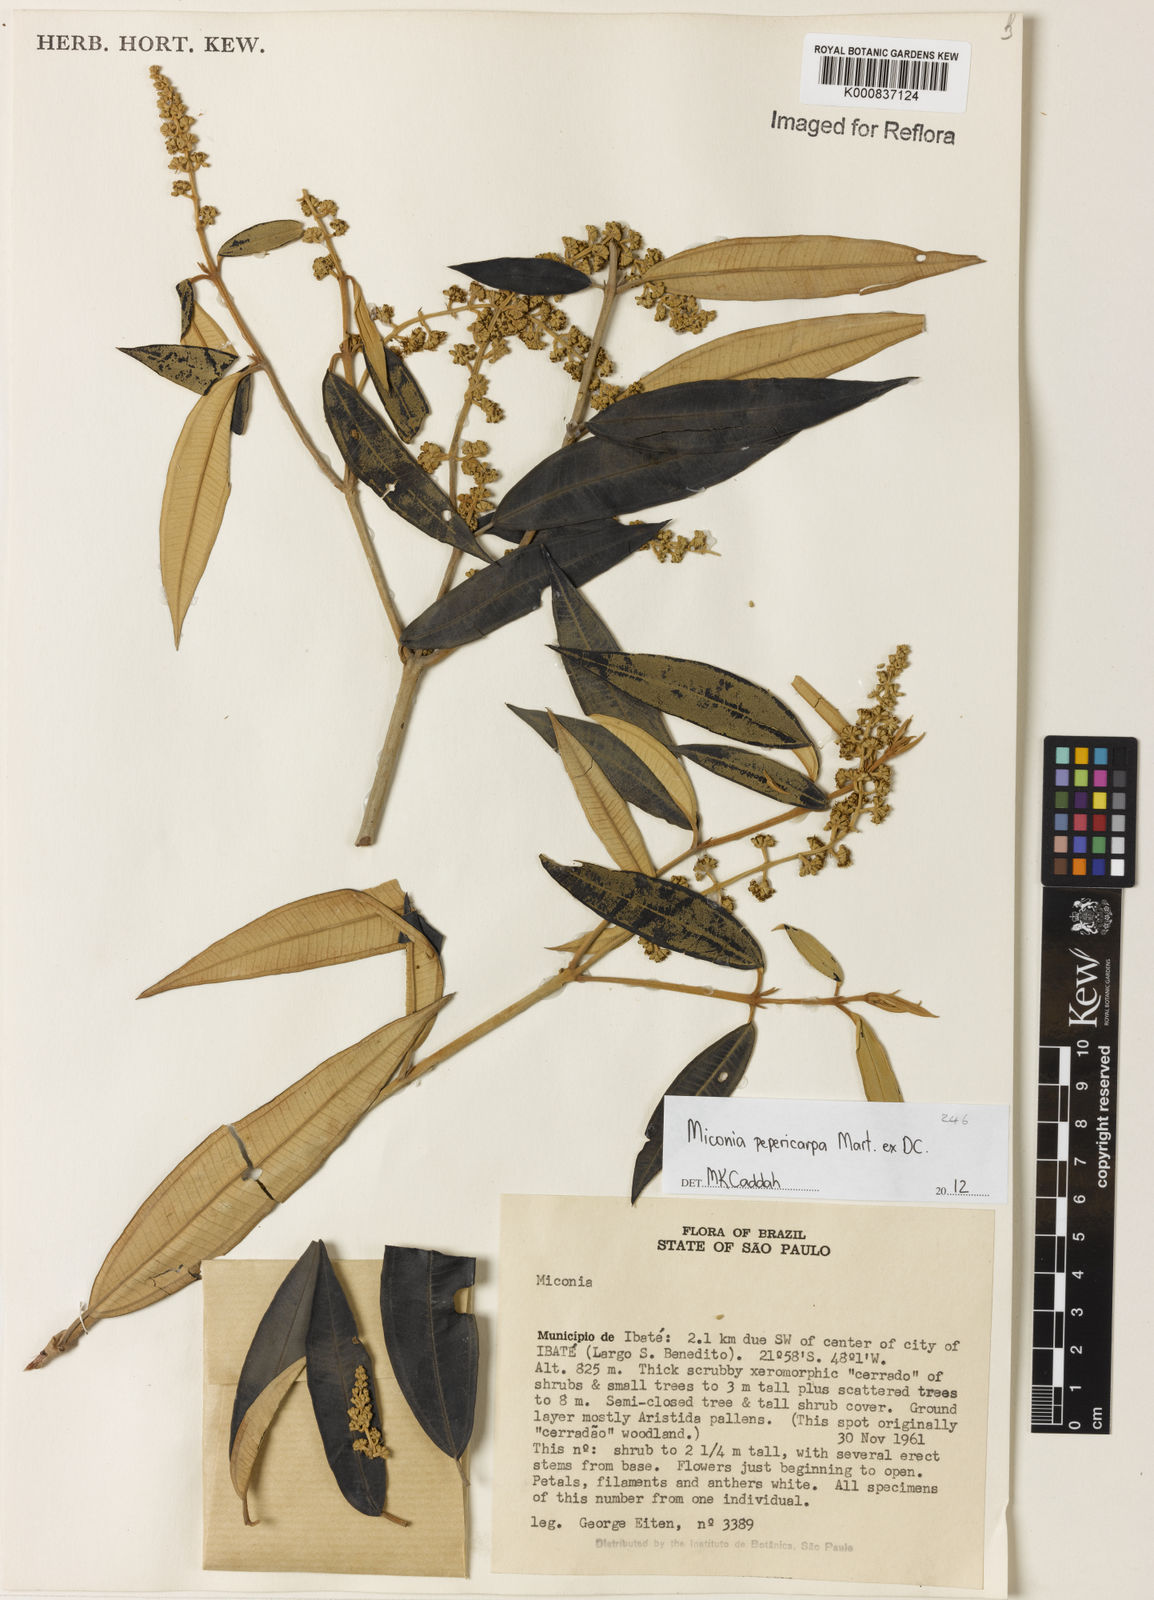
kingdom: Plantae
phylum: Tracheophyta
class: Magnoliopsida
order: Myrtales
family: Melastomataceae
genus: Miconia
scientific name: Miconia pepericarpa
